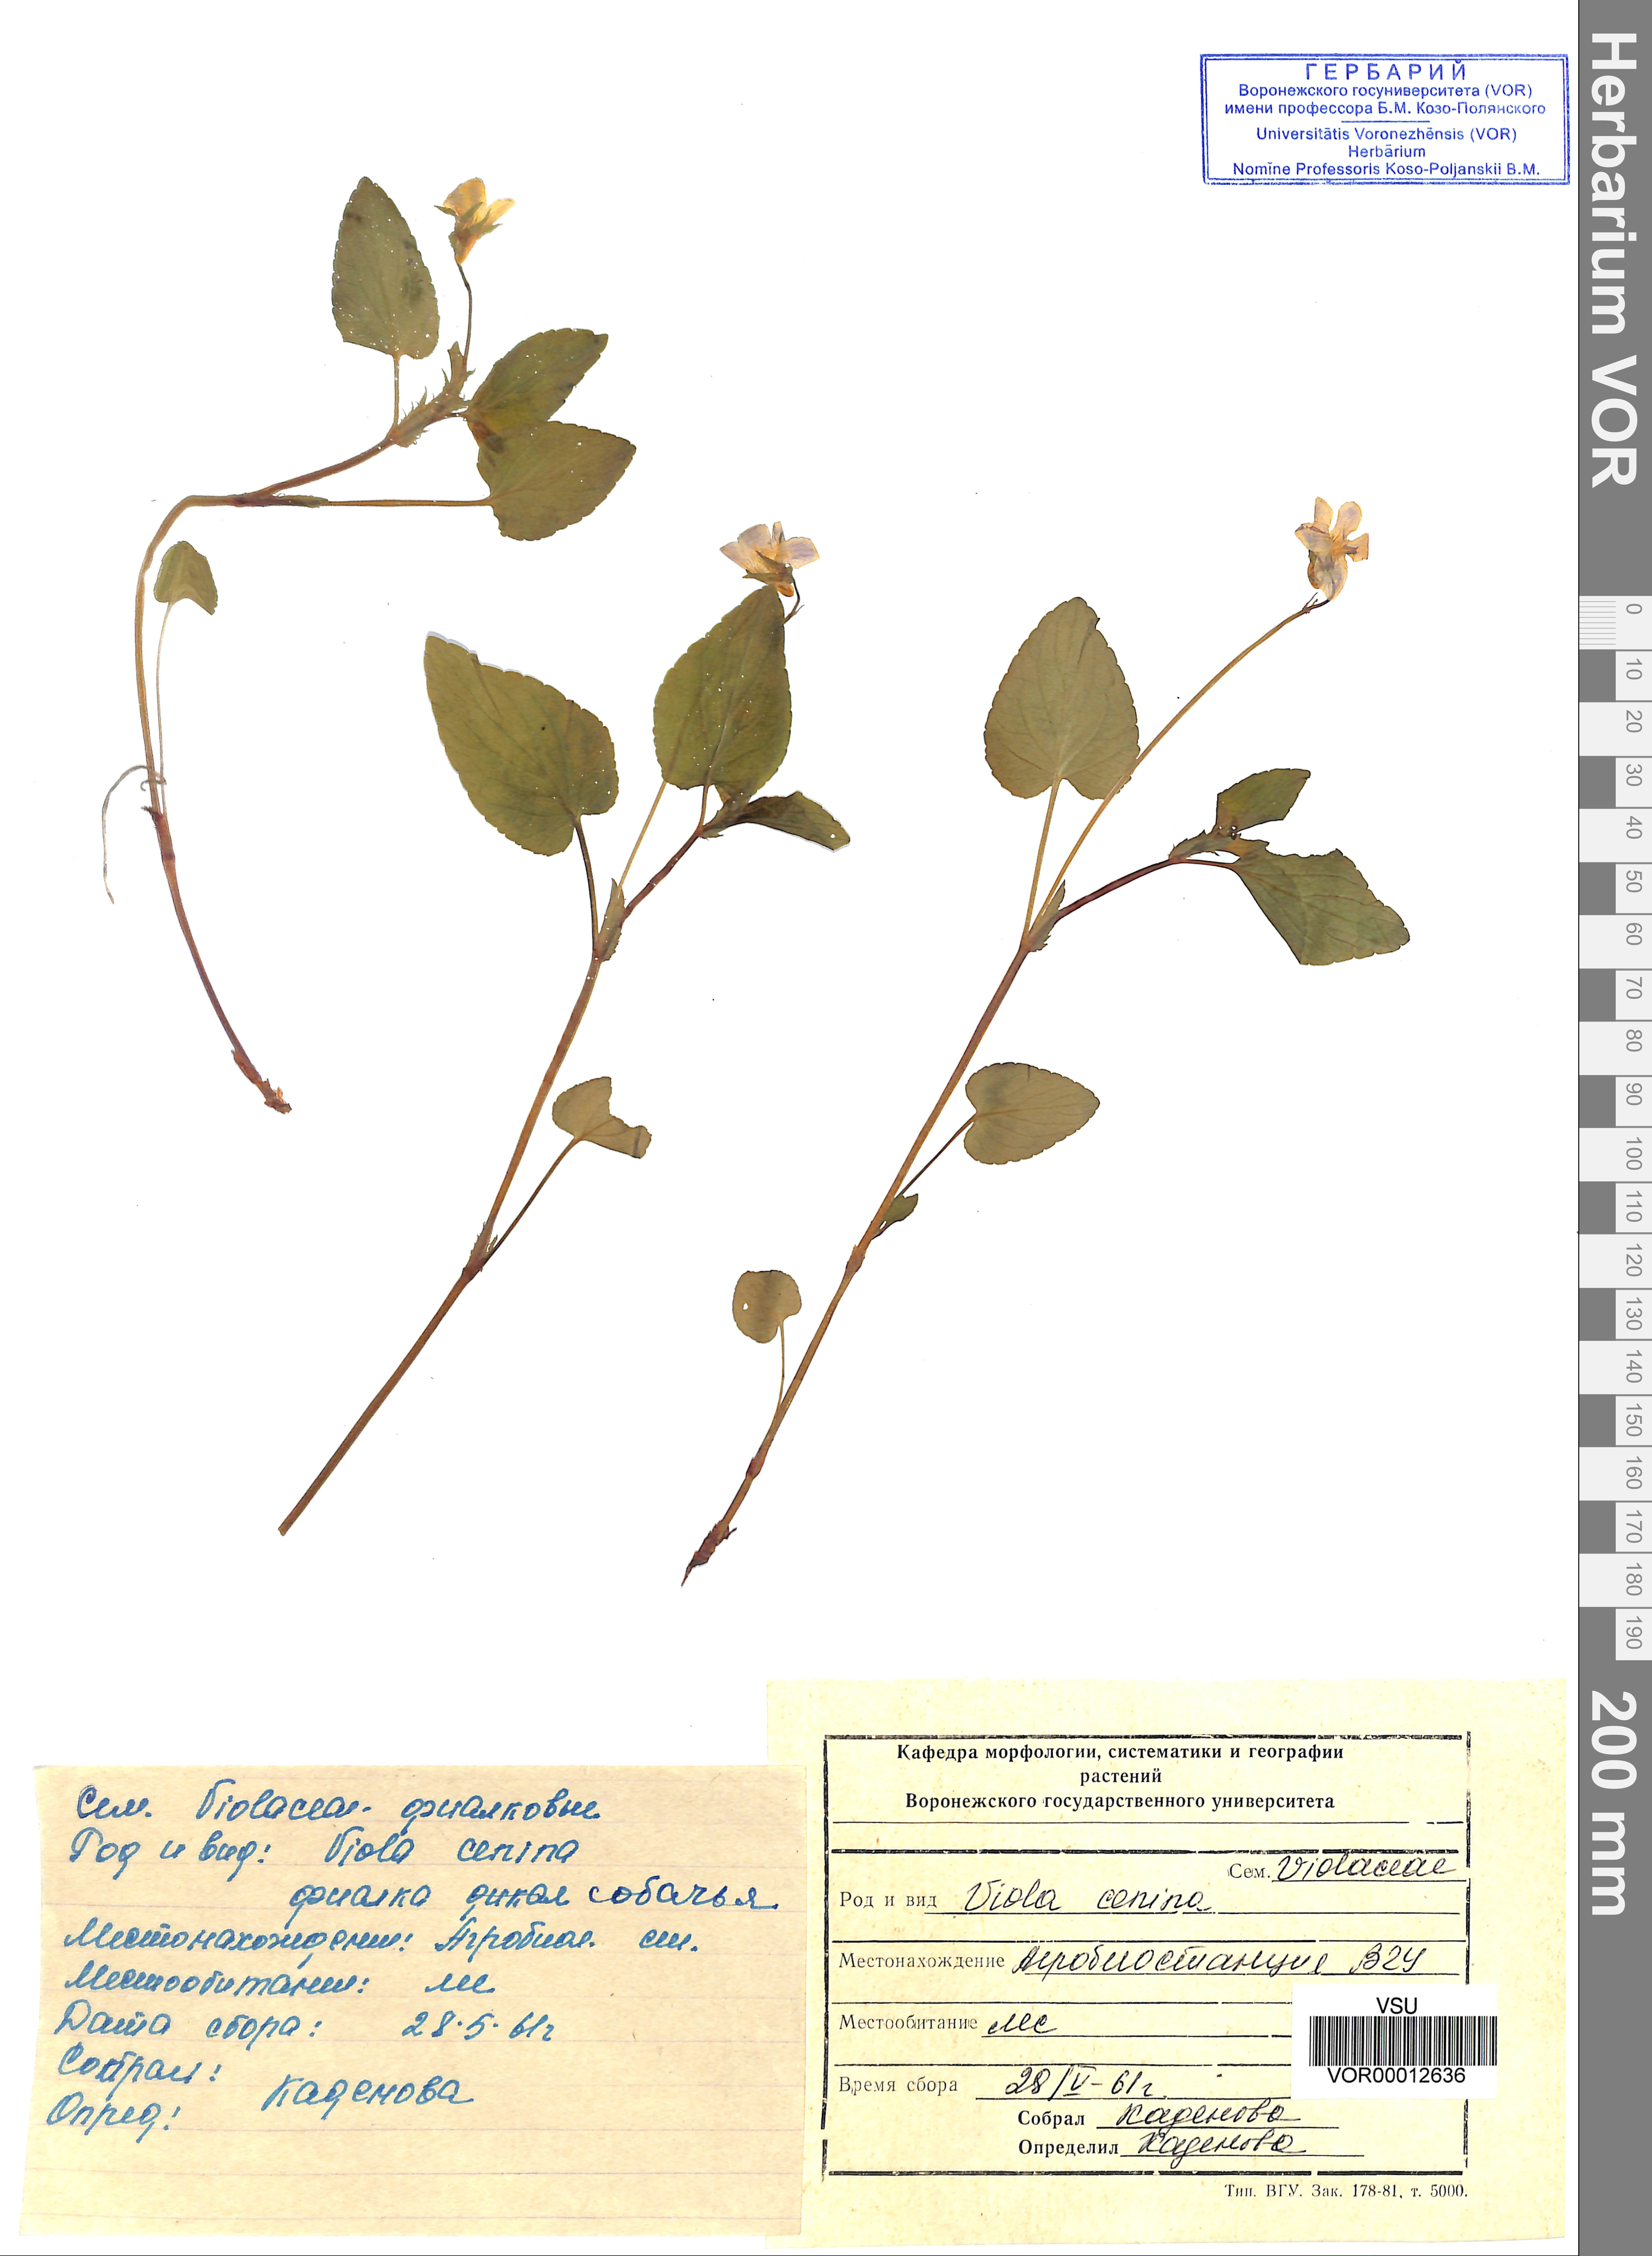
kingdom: Plantae
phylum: Tracheophyta
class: Magnoliopsida
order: Malpighiales
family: Violaceae
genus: Viola
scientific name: Viola canina
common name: Heath dog-violet
